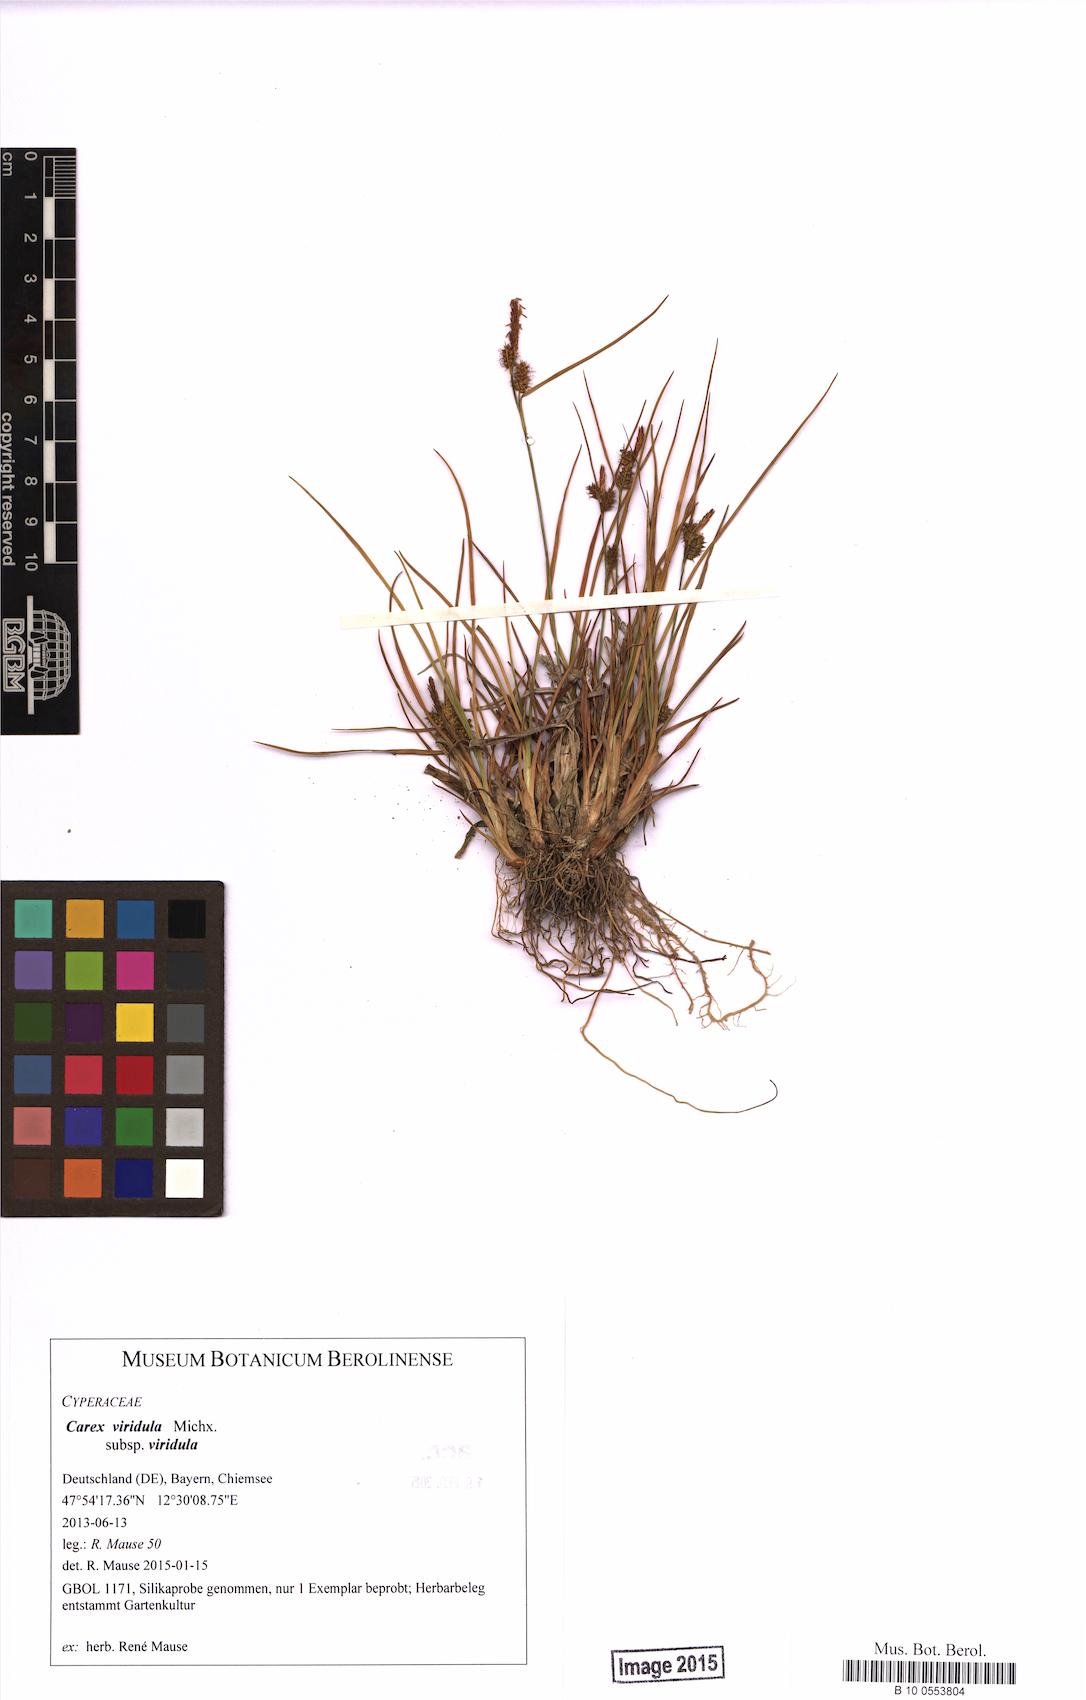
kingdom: Plantae
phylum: Tracheophyta
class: Liliopsida
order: Poales
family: Cyperaceae
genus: Carex
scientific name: Carex oederi
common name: Common & small-fruited yellow-sedge
